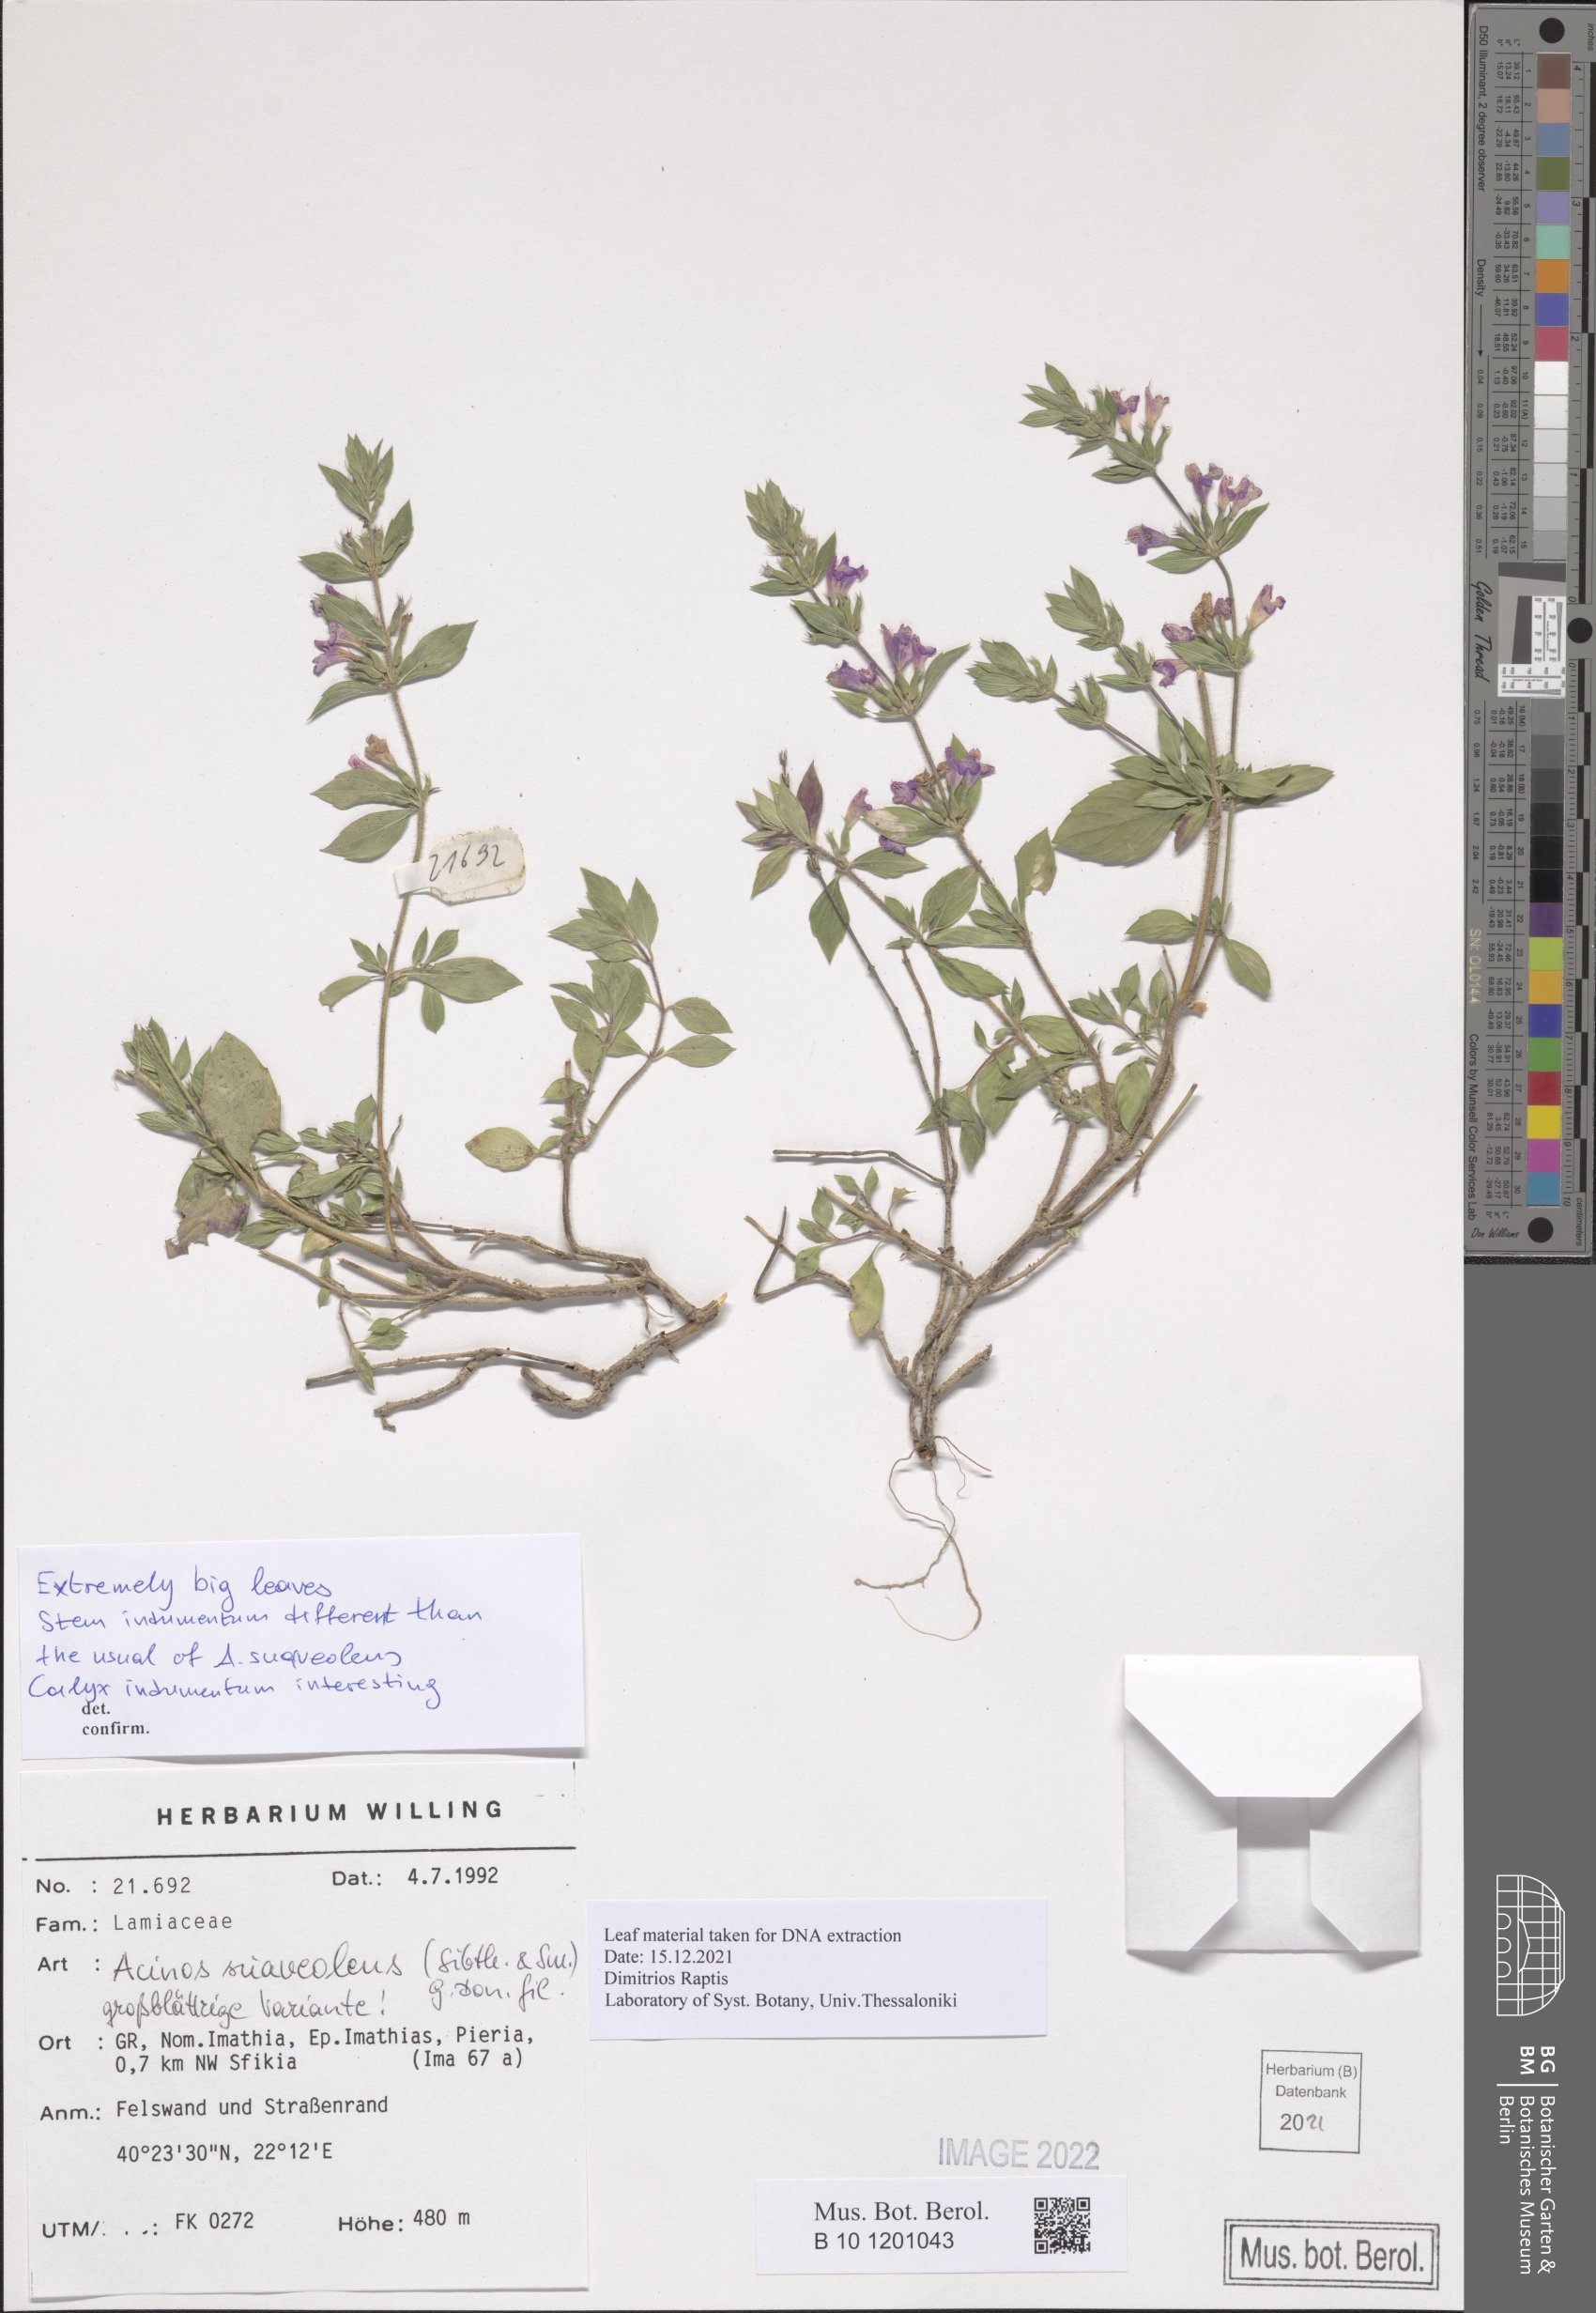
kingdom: Plantae
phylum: Tracheophyta
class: Magnoliopsida
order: Lamiales
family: Lamiaceae
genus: Clinopodium
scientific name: Clinopodium suaveolens
